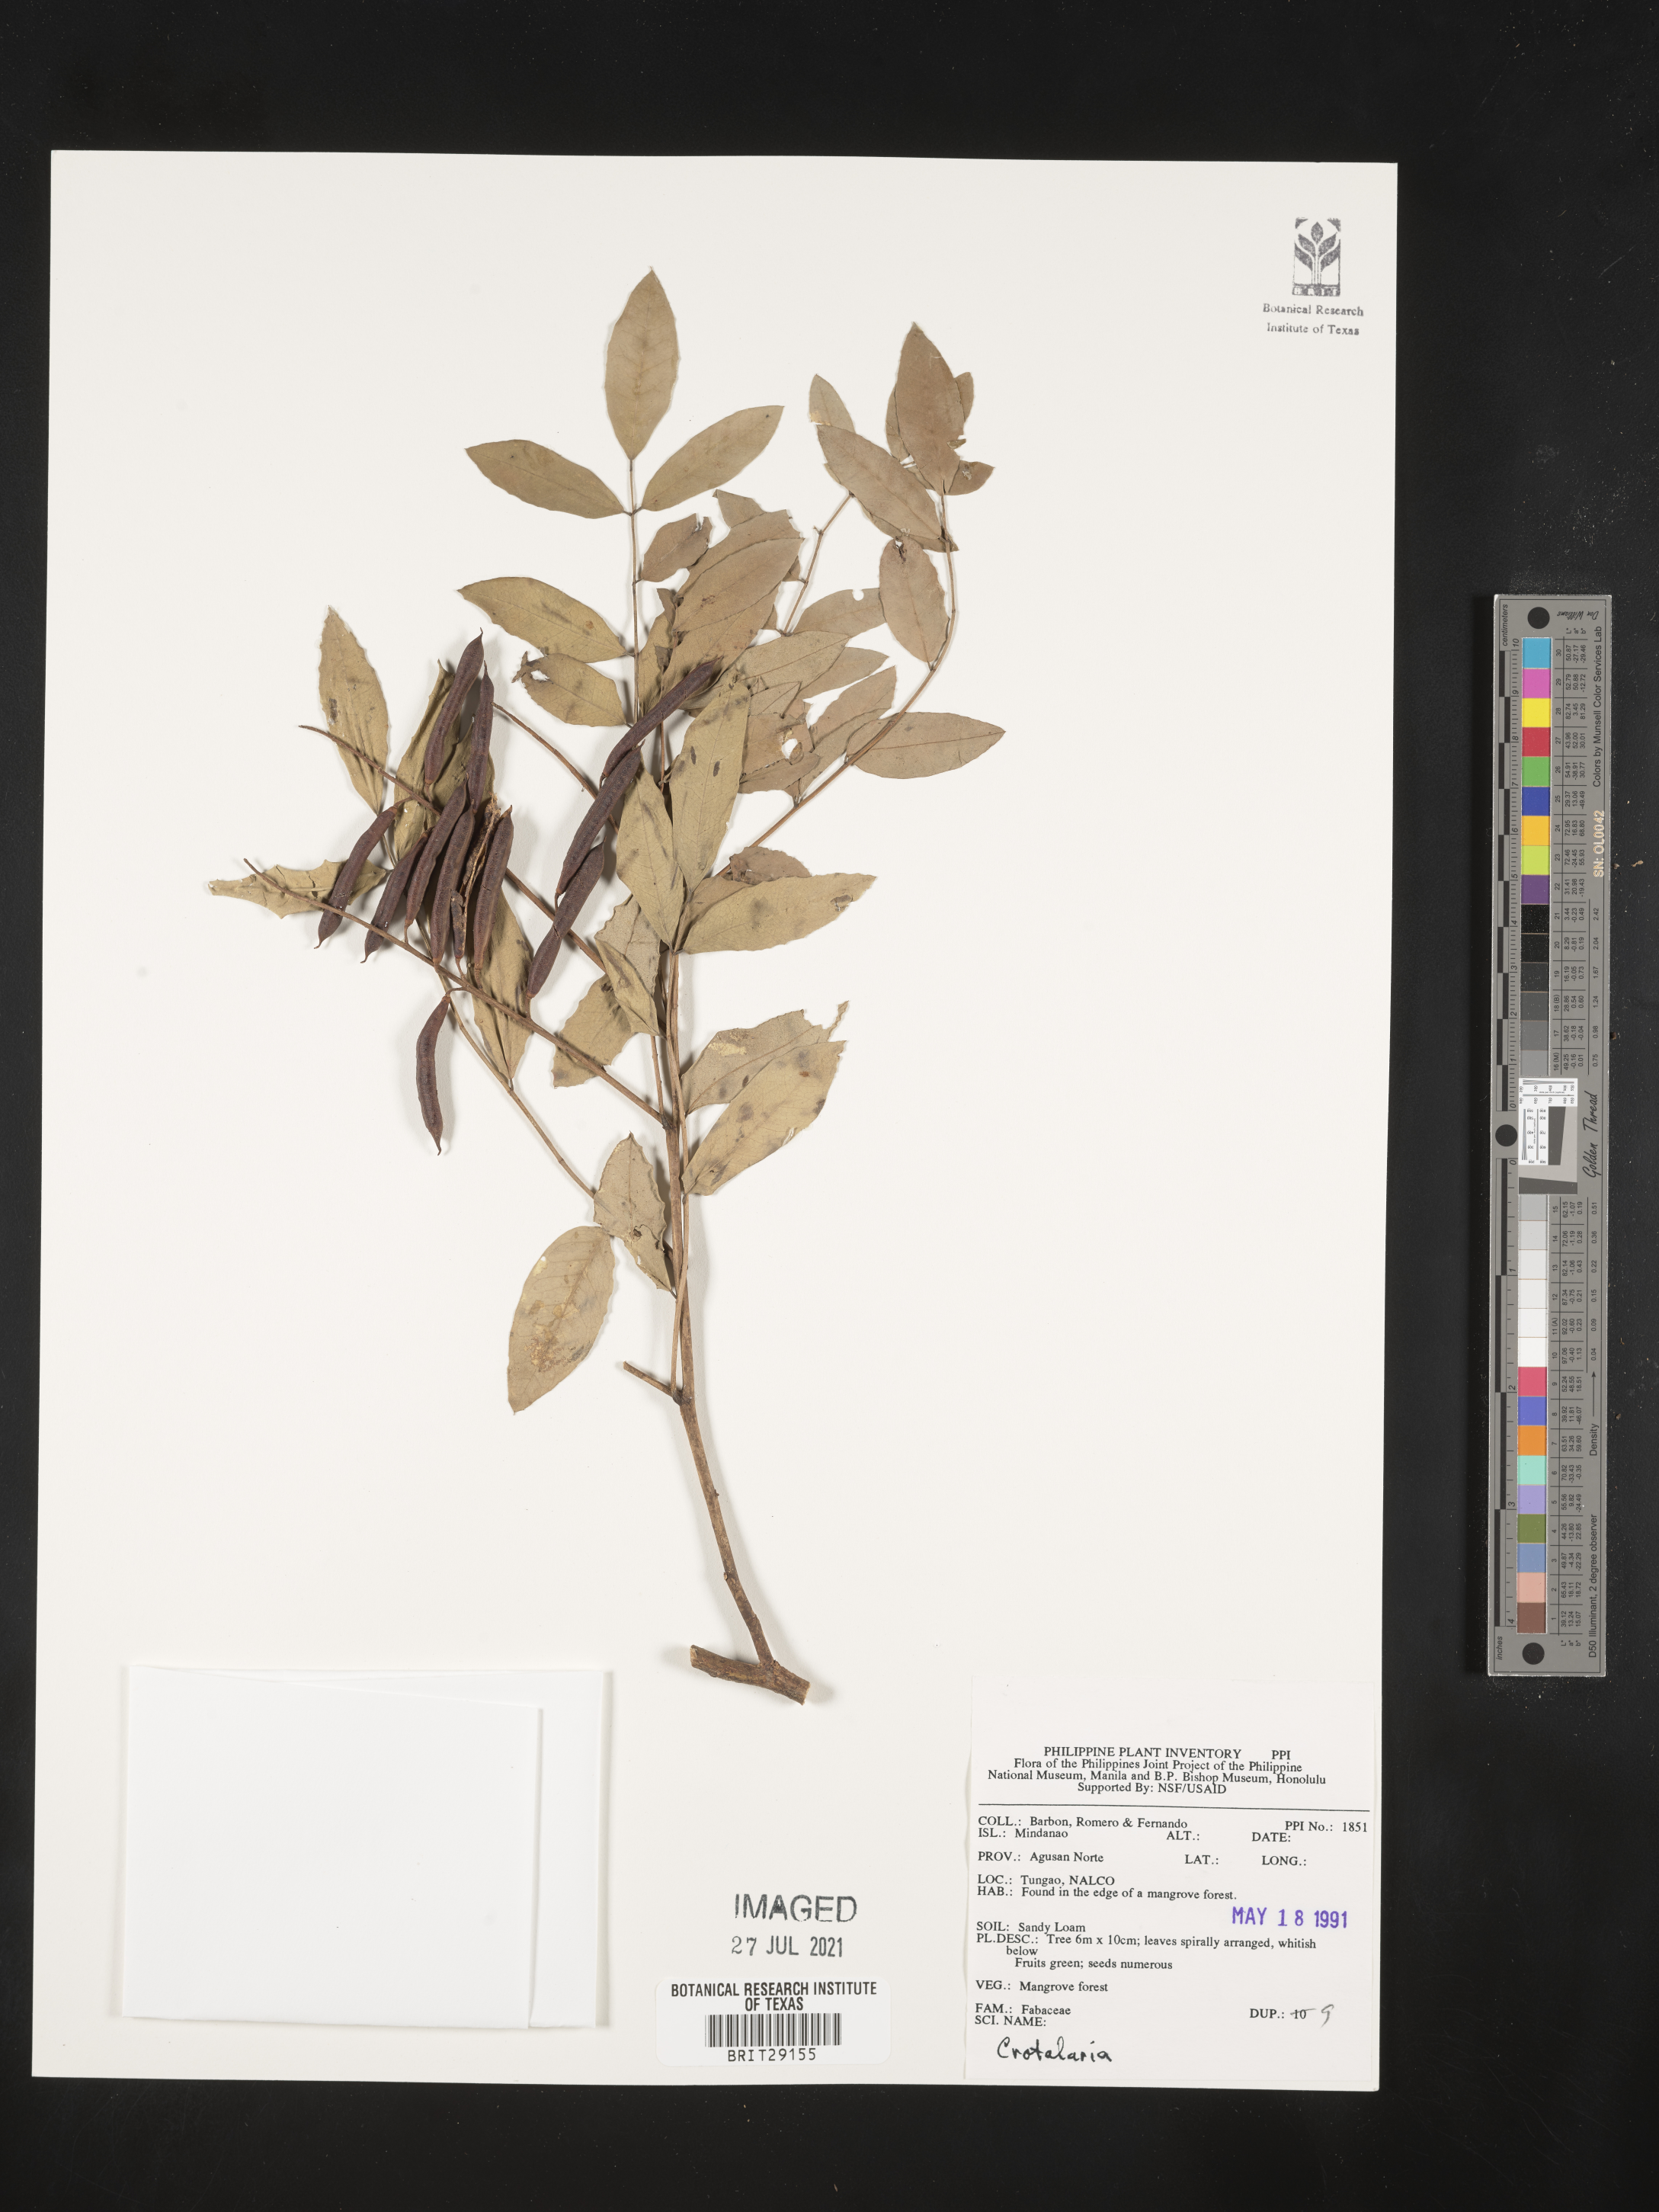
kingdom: Plantae
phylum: Tracheophyta
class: Magnoliopsida
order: Fabales
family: Fabaceae
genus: Crotalaria
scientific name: Crotalaria
